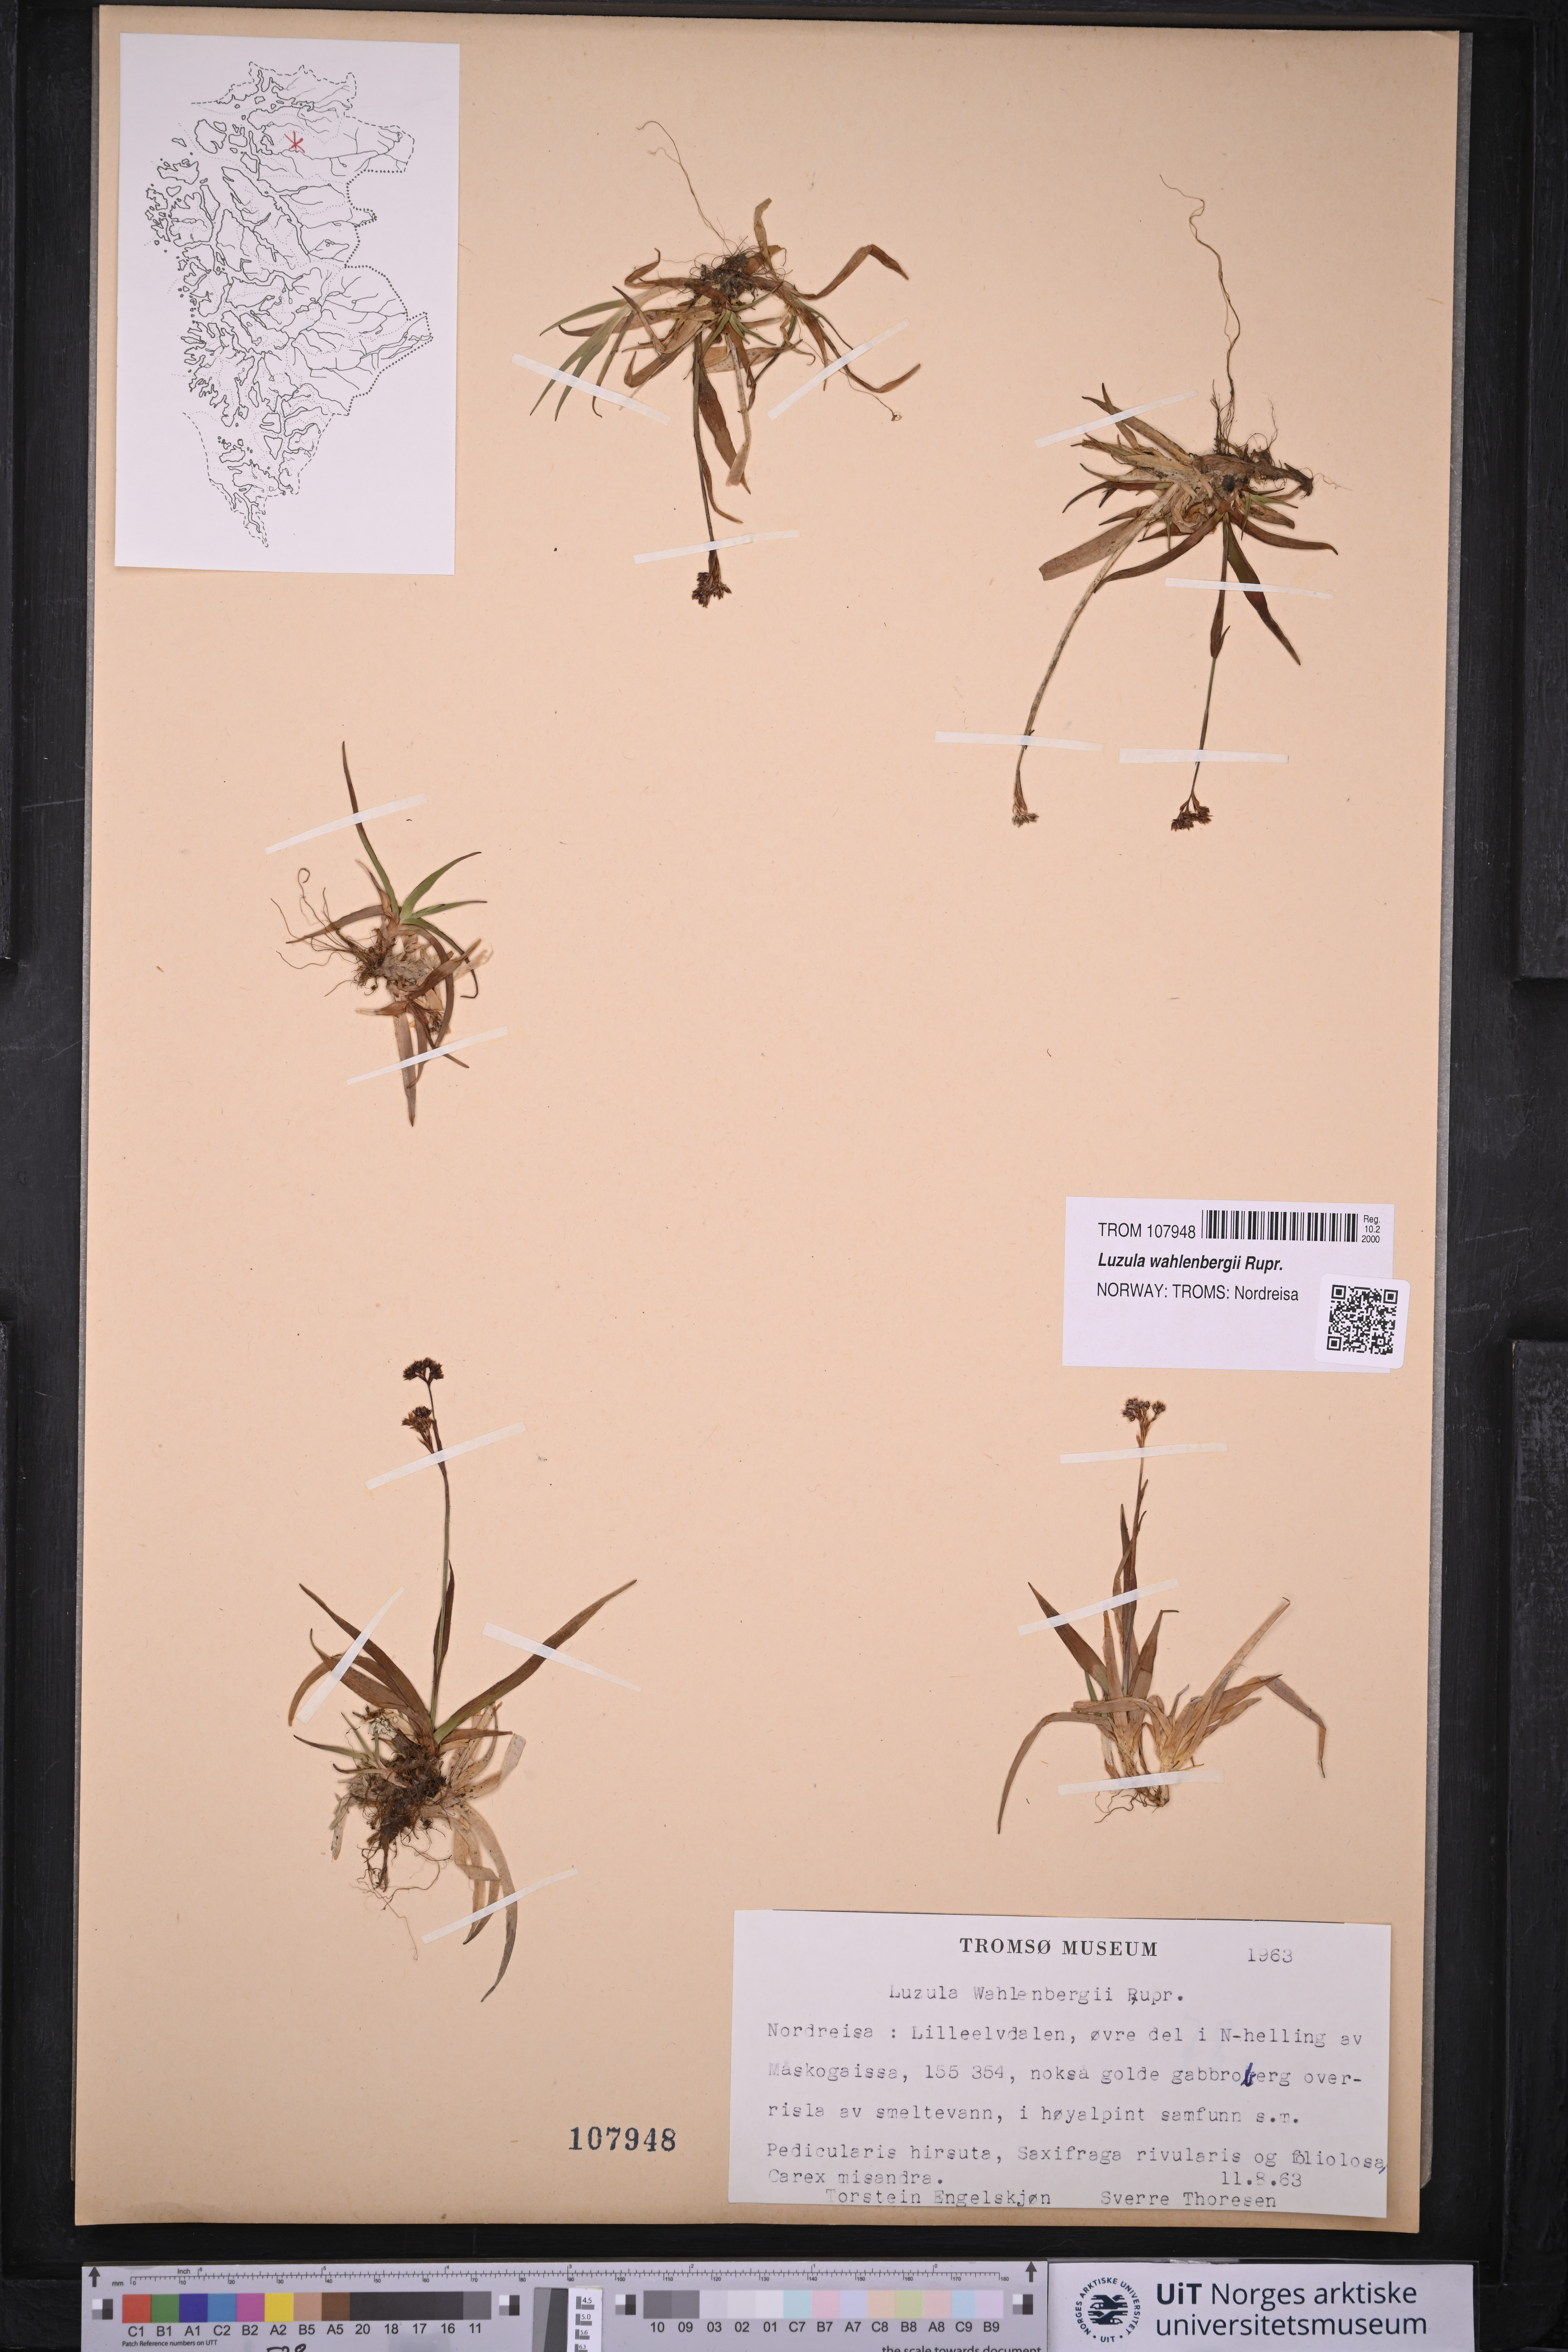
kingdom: Plantae
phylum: Tracheophyta
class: Liliopsida
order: Poales
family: Juncaceae
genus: Luzula
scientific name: Luzula wahlenbergii
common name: Wahlenberg's wood-rush
